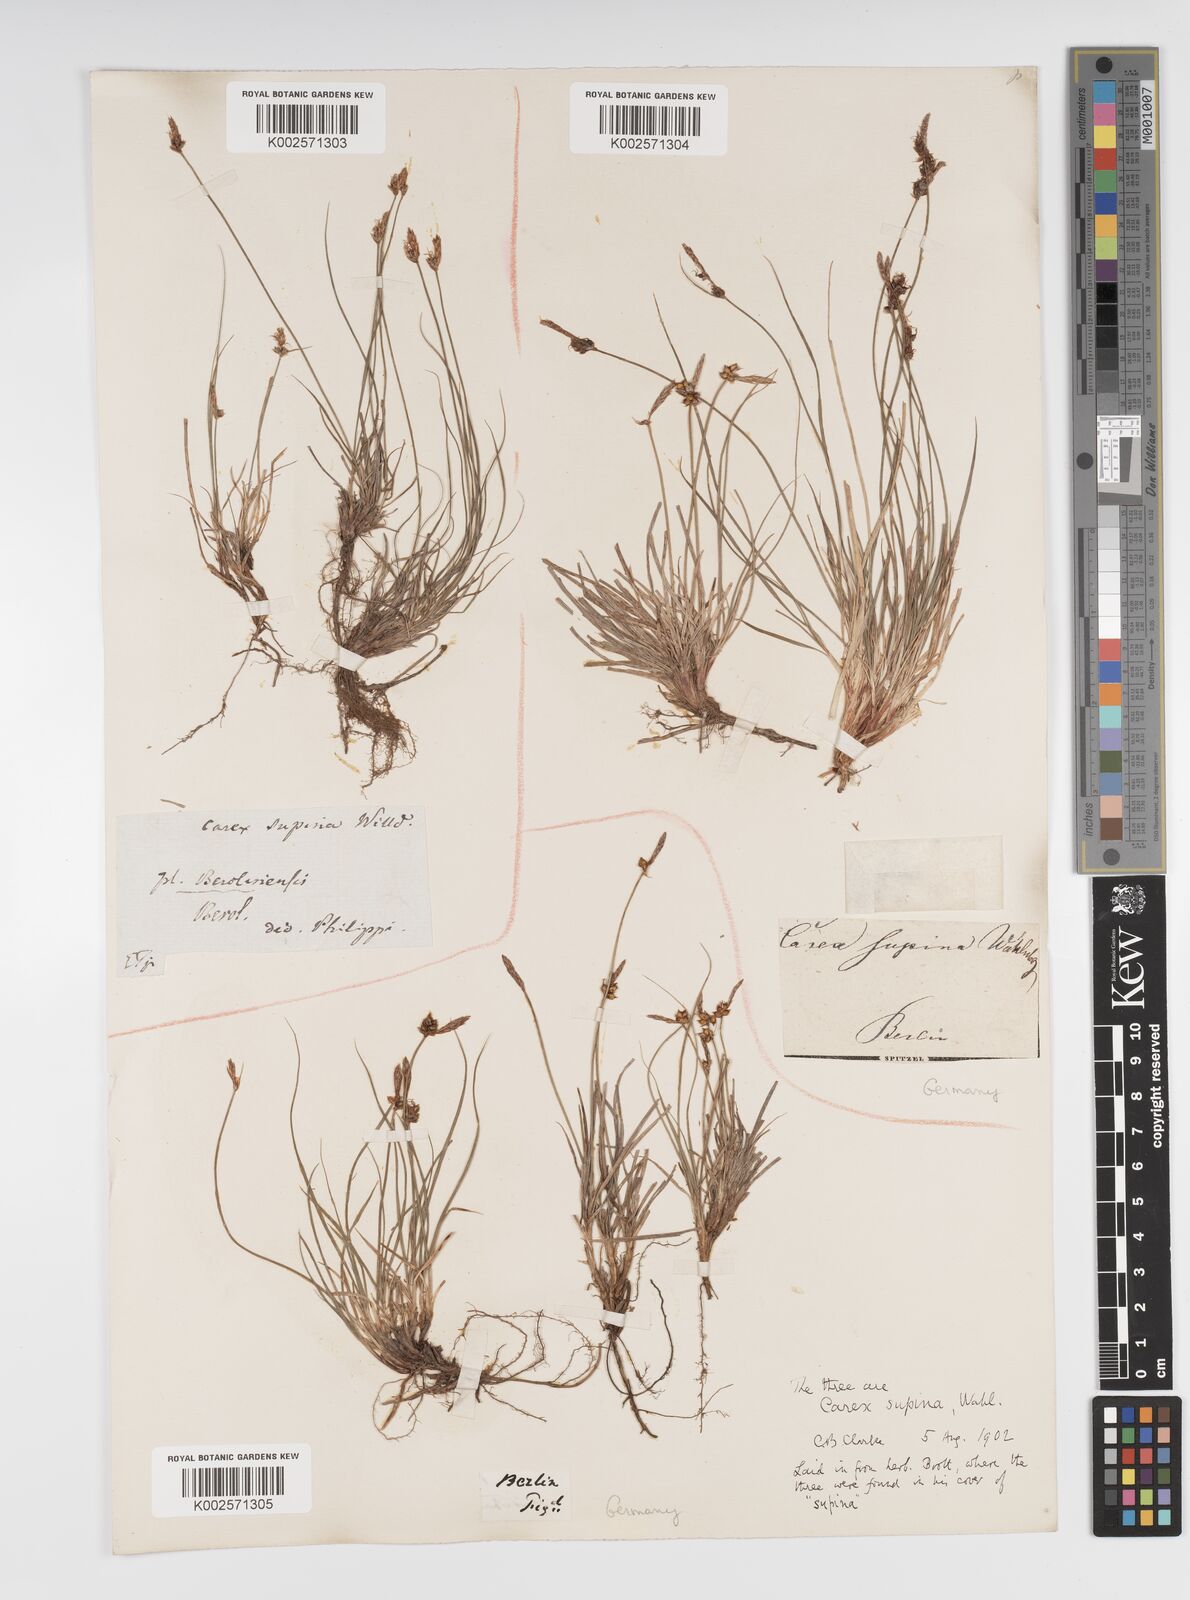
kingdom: Plantae
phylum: Tracheophyta
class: Liliopsida
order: Poales
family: Cyperaceae
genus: Carex
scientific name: Carex supina
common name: Lying-back sedge
